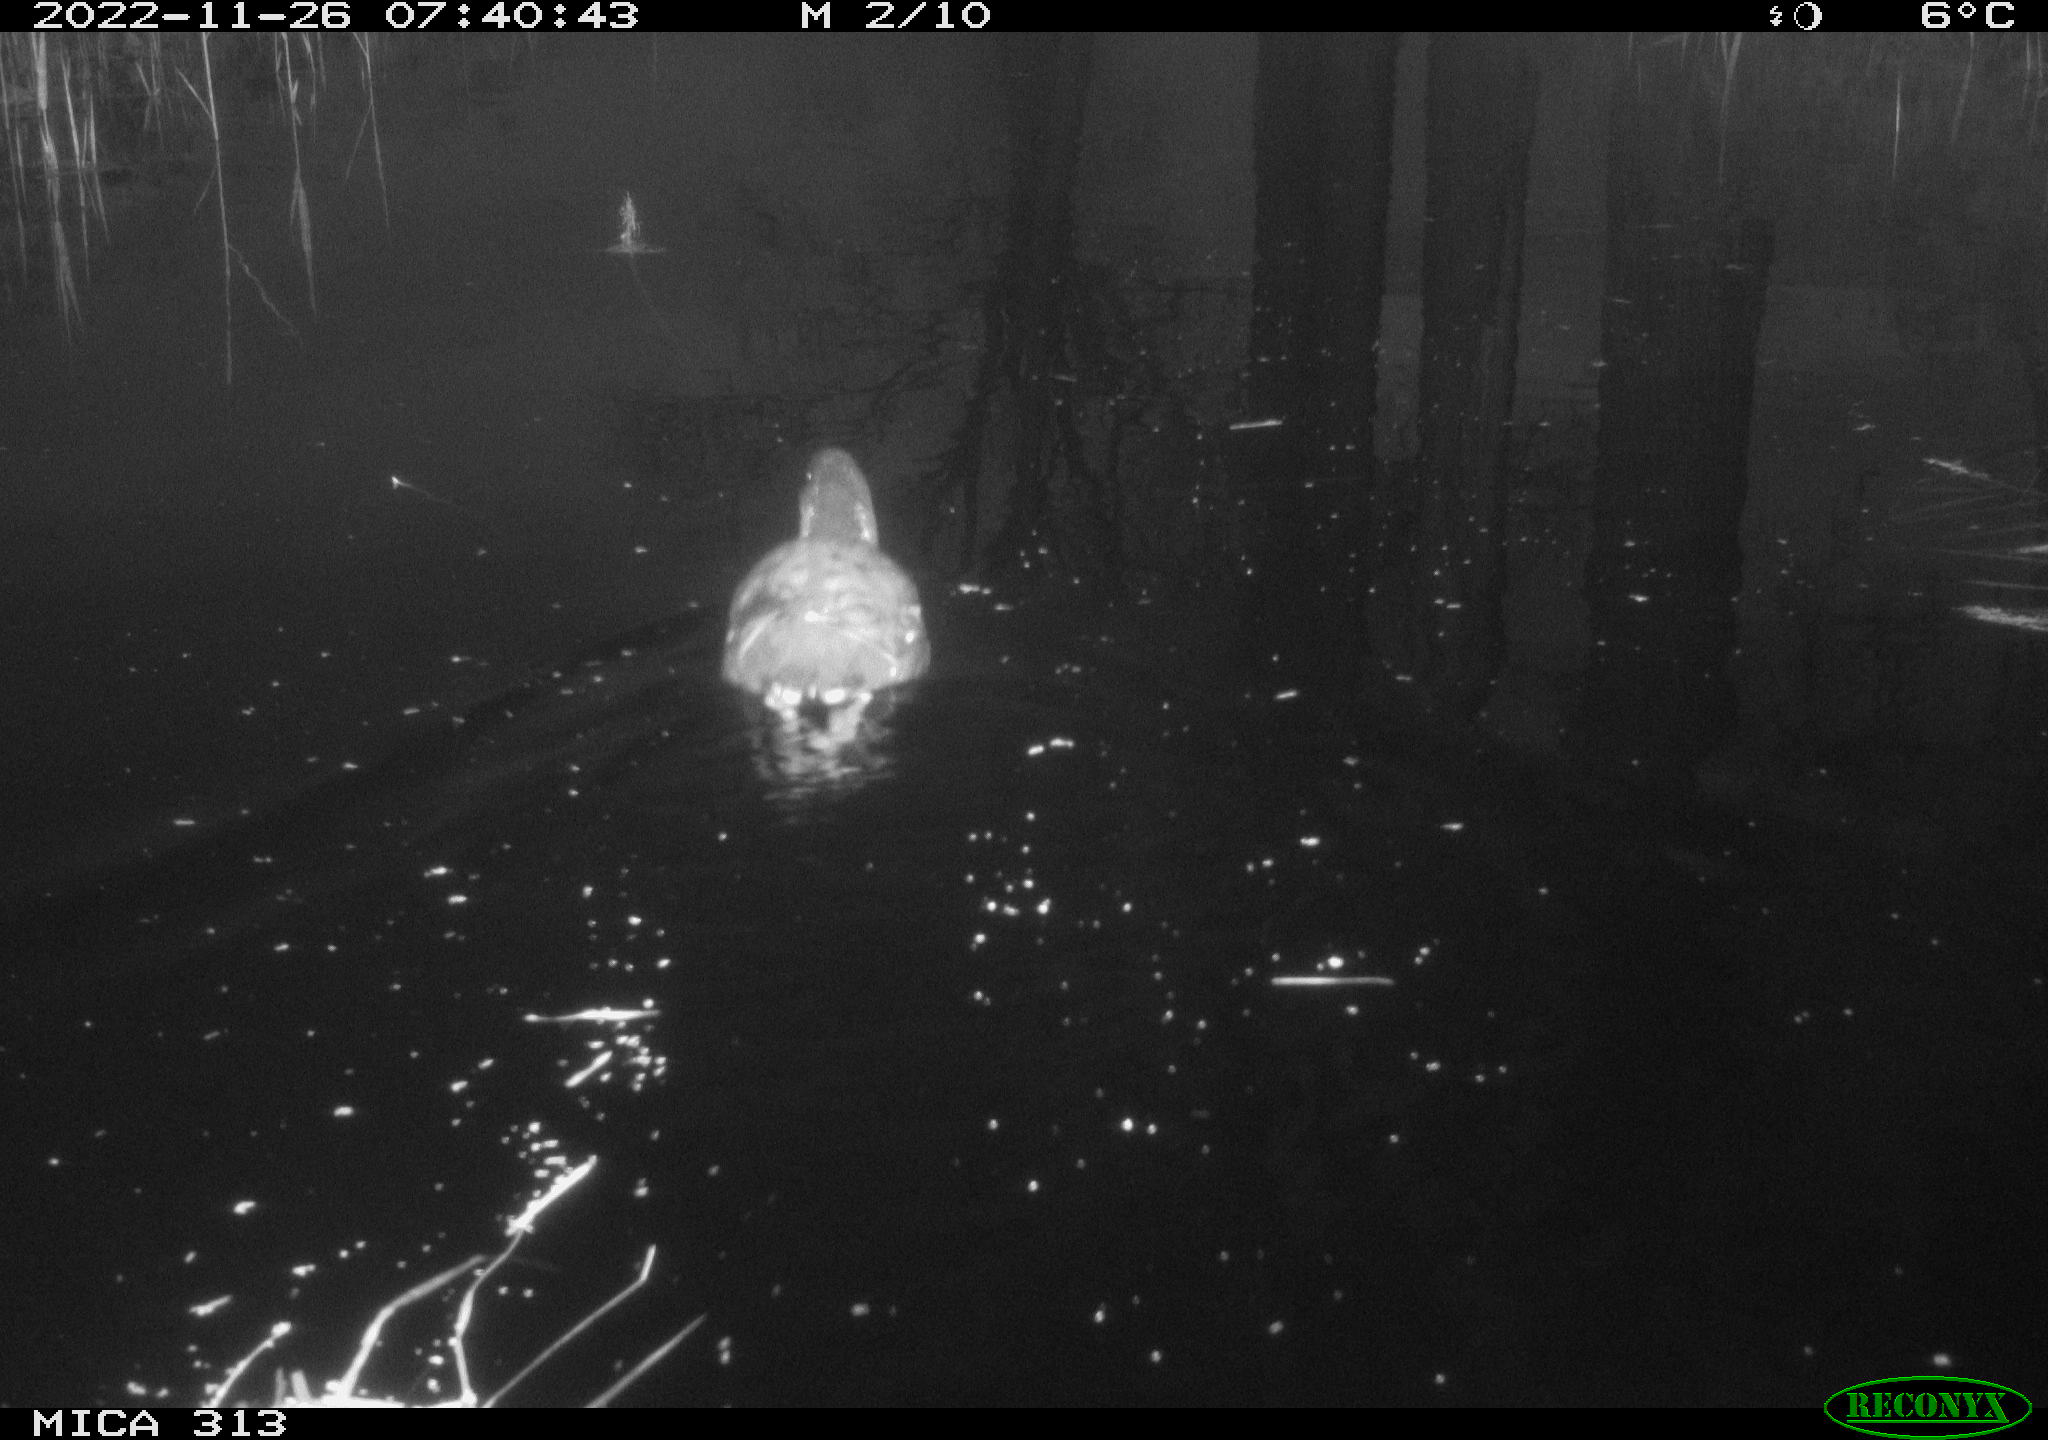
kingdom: Animalia
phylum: Chordata
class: Aves
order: Gruiformes
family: Rallidae
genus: Gallinula
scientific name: Gallinula chloropus
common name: Common moorhen
